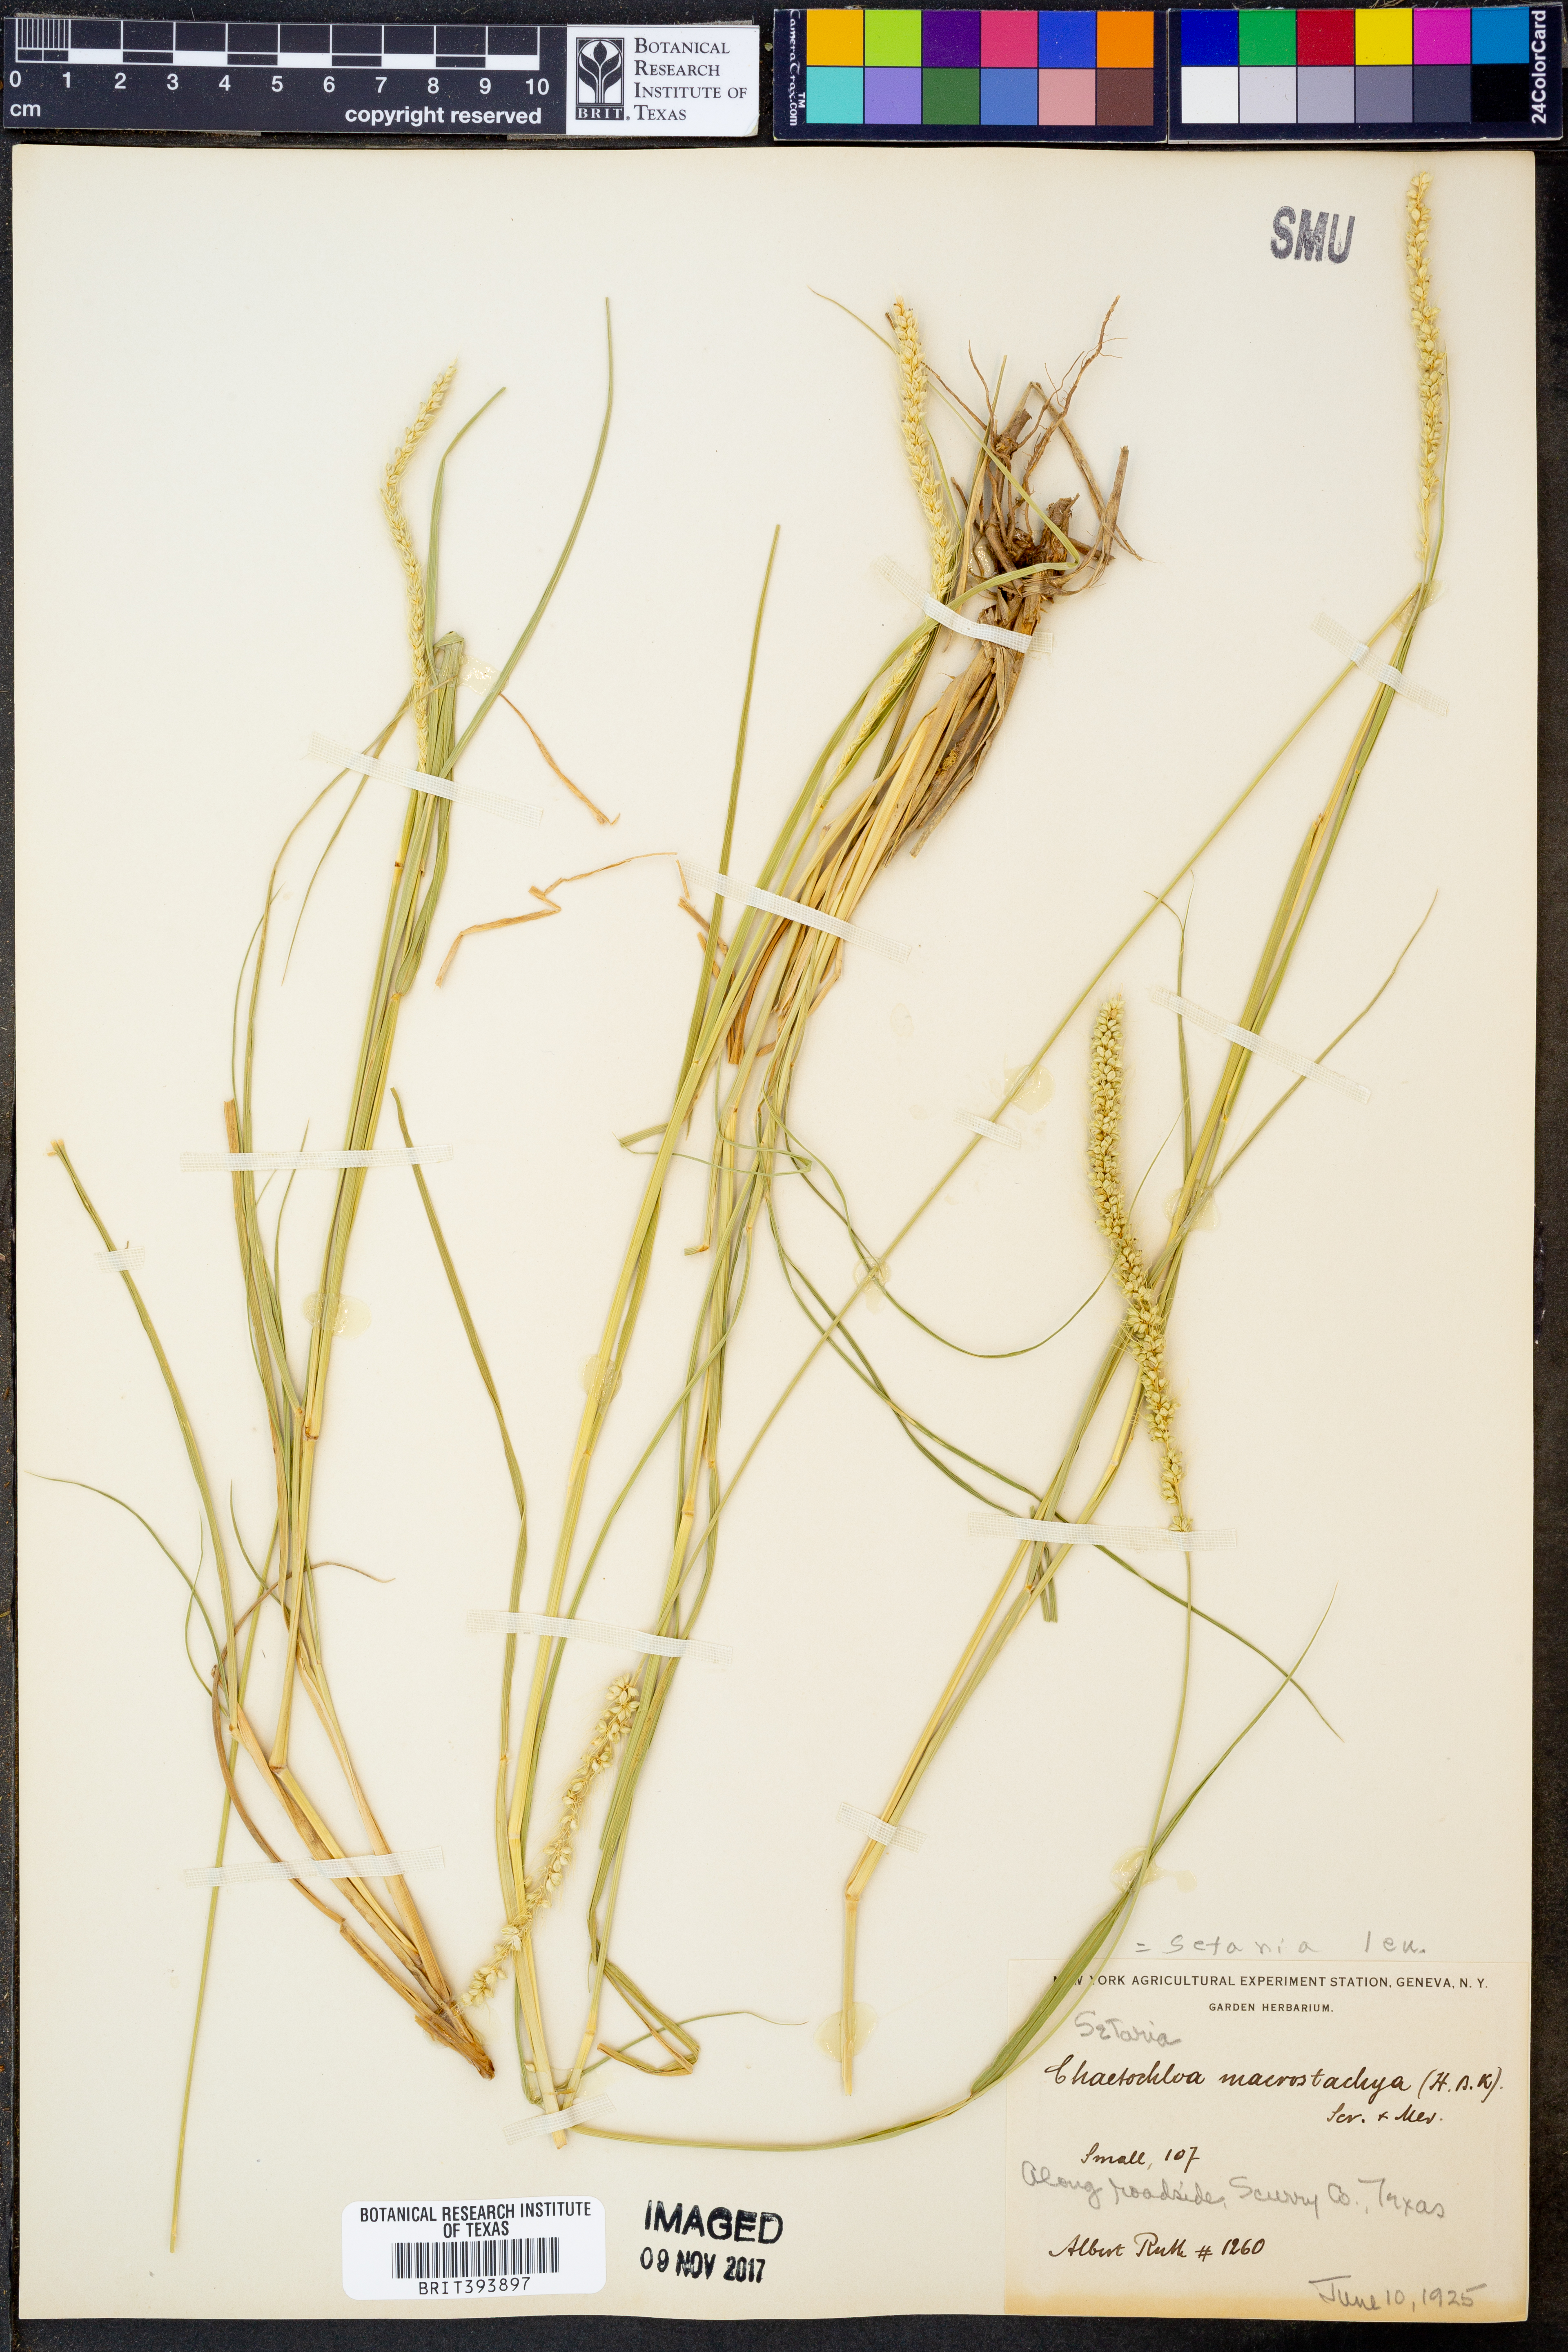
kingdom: Plantae
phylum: Tracheophyta
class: Liliopsida
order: Poales
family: Poaceae
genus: Setaria
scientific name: Setaria macrostachya
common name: Plains bristle grass
